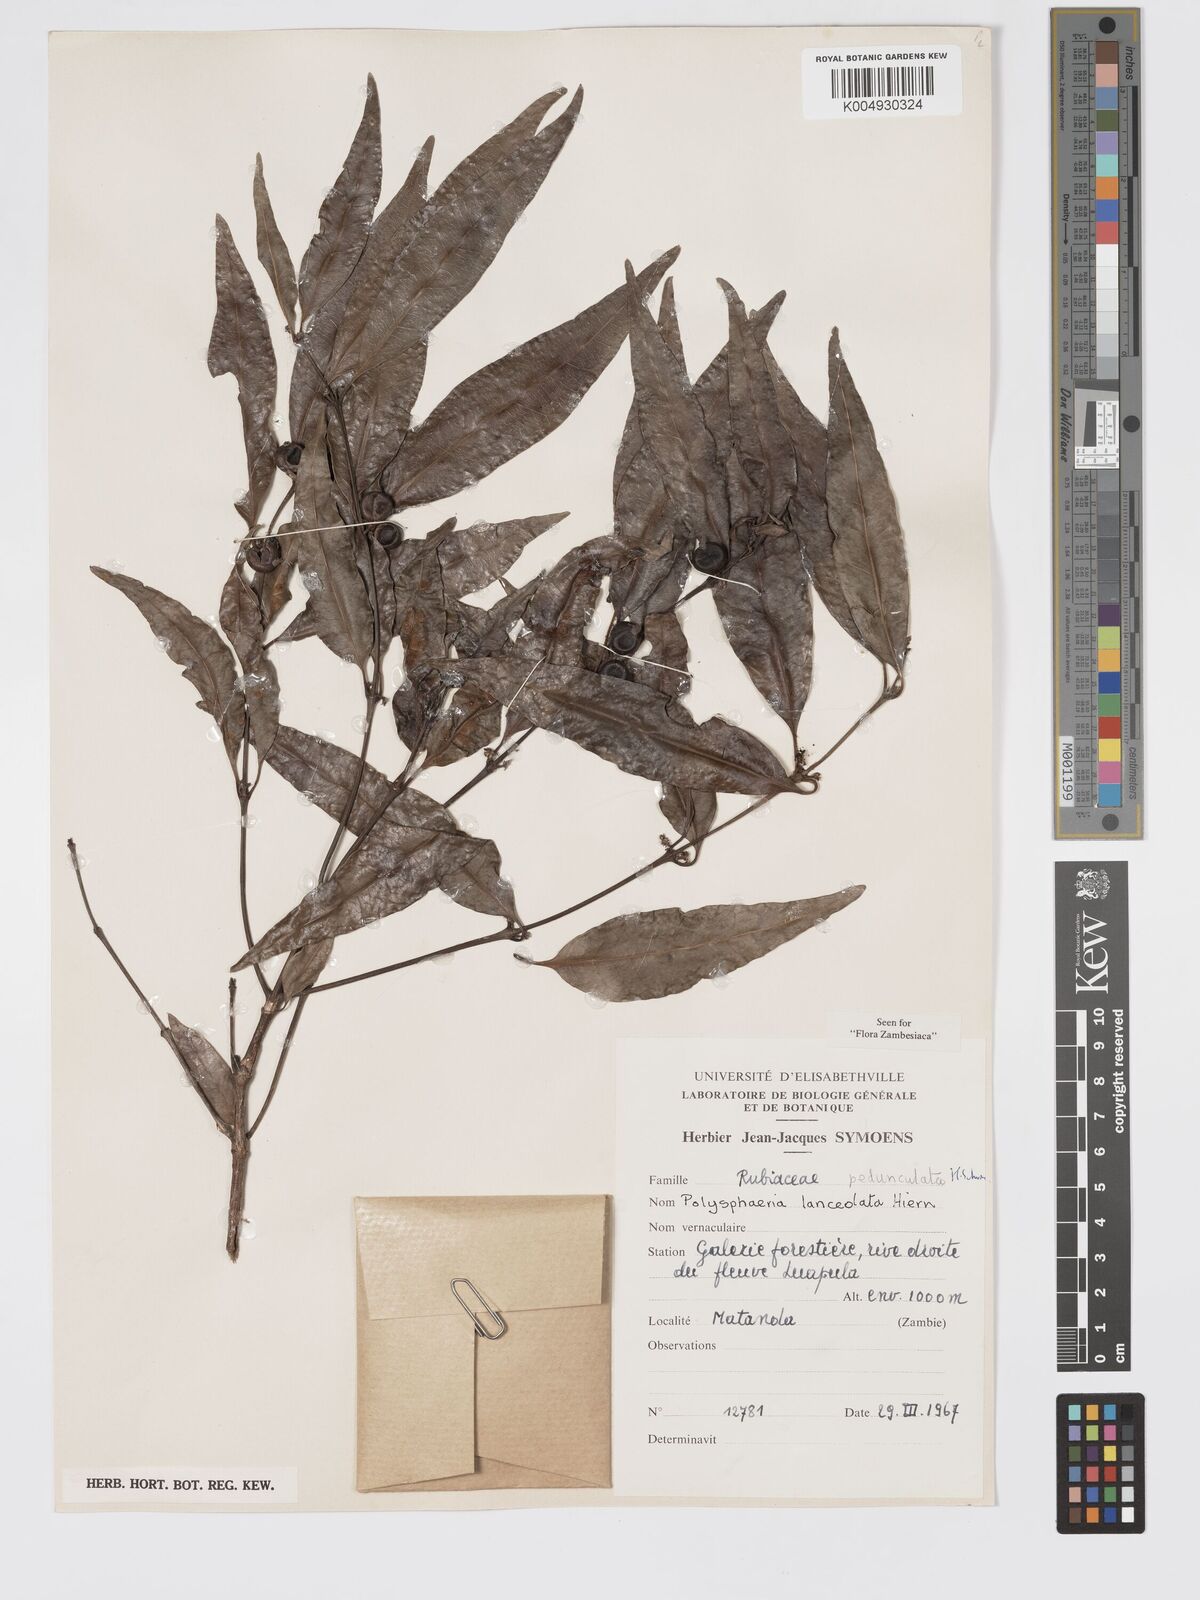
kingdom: Plantae
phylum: Tracheophyta
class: Magnoliopsida
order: Gentianales
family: Rubiaceae
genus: Polysphaeria
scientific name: Polysphaeria pedunculata
